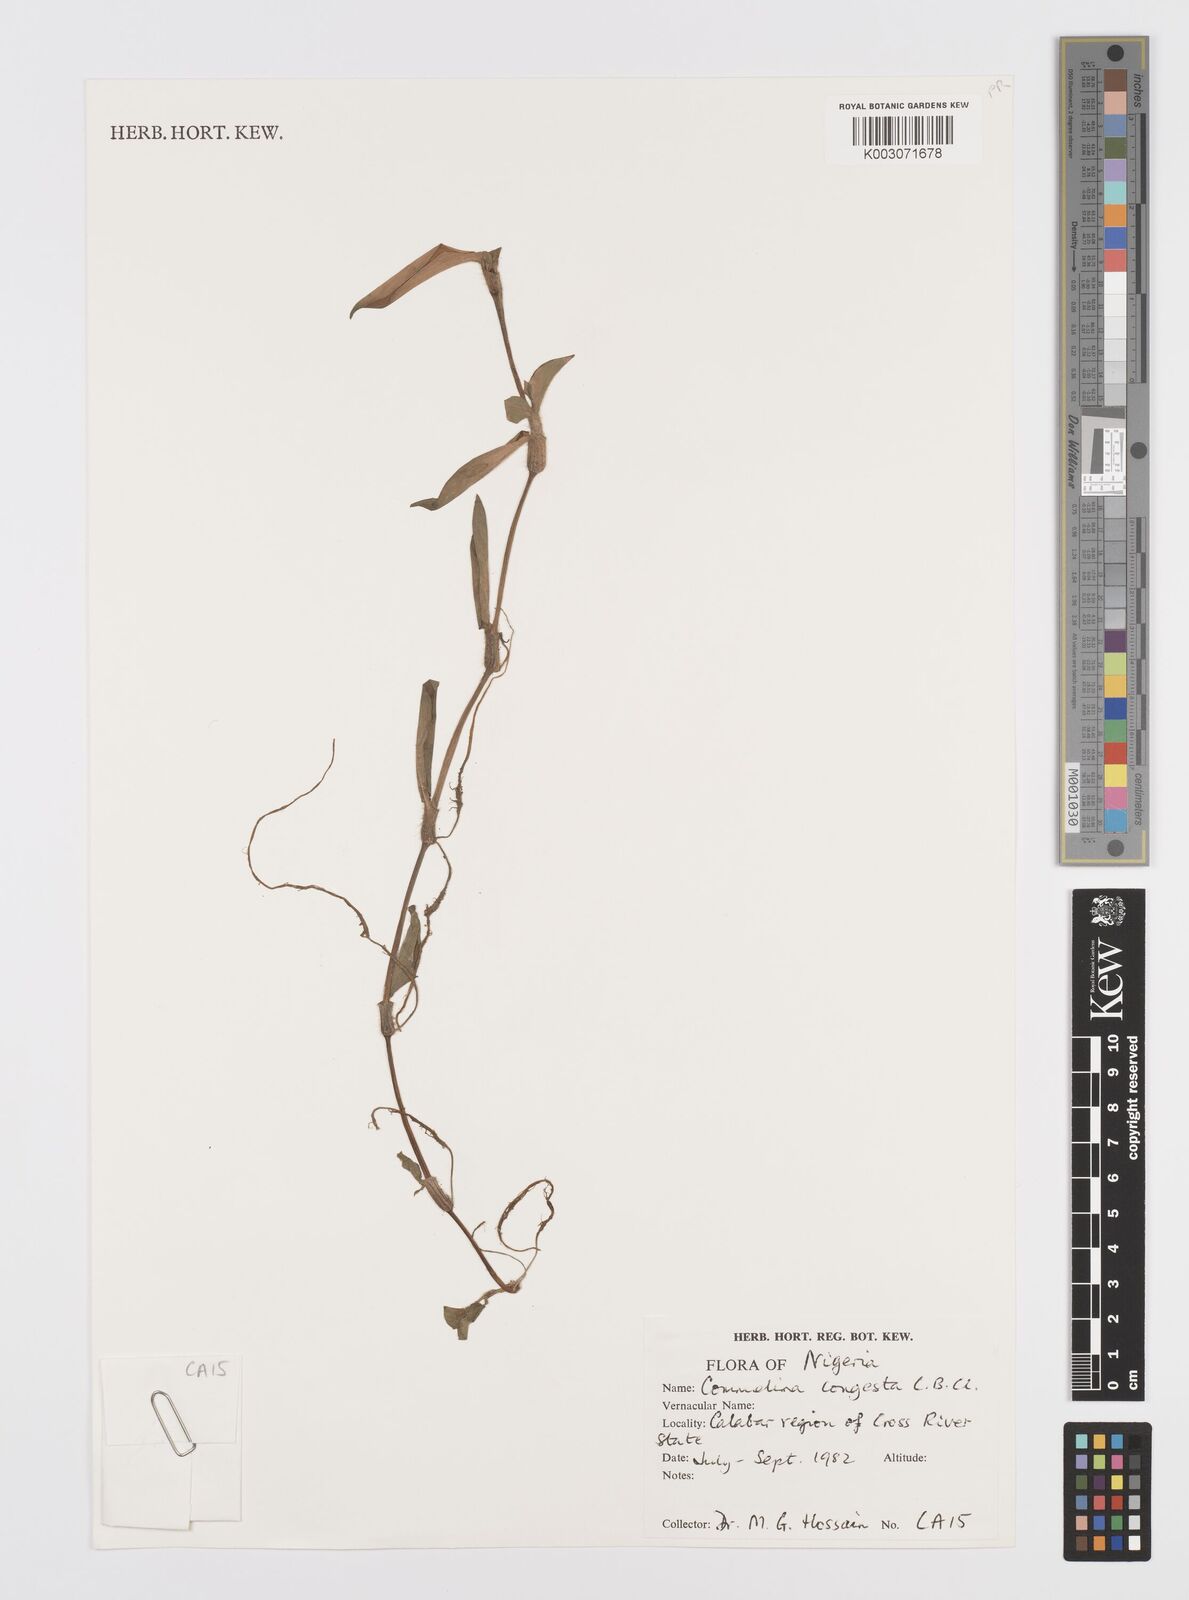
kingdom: Plantae
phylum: Tracheophyta
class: Liliopsida
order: Commelinales
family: Commelinaceae
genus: Commelina
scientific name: Commelina congesta
